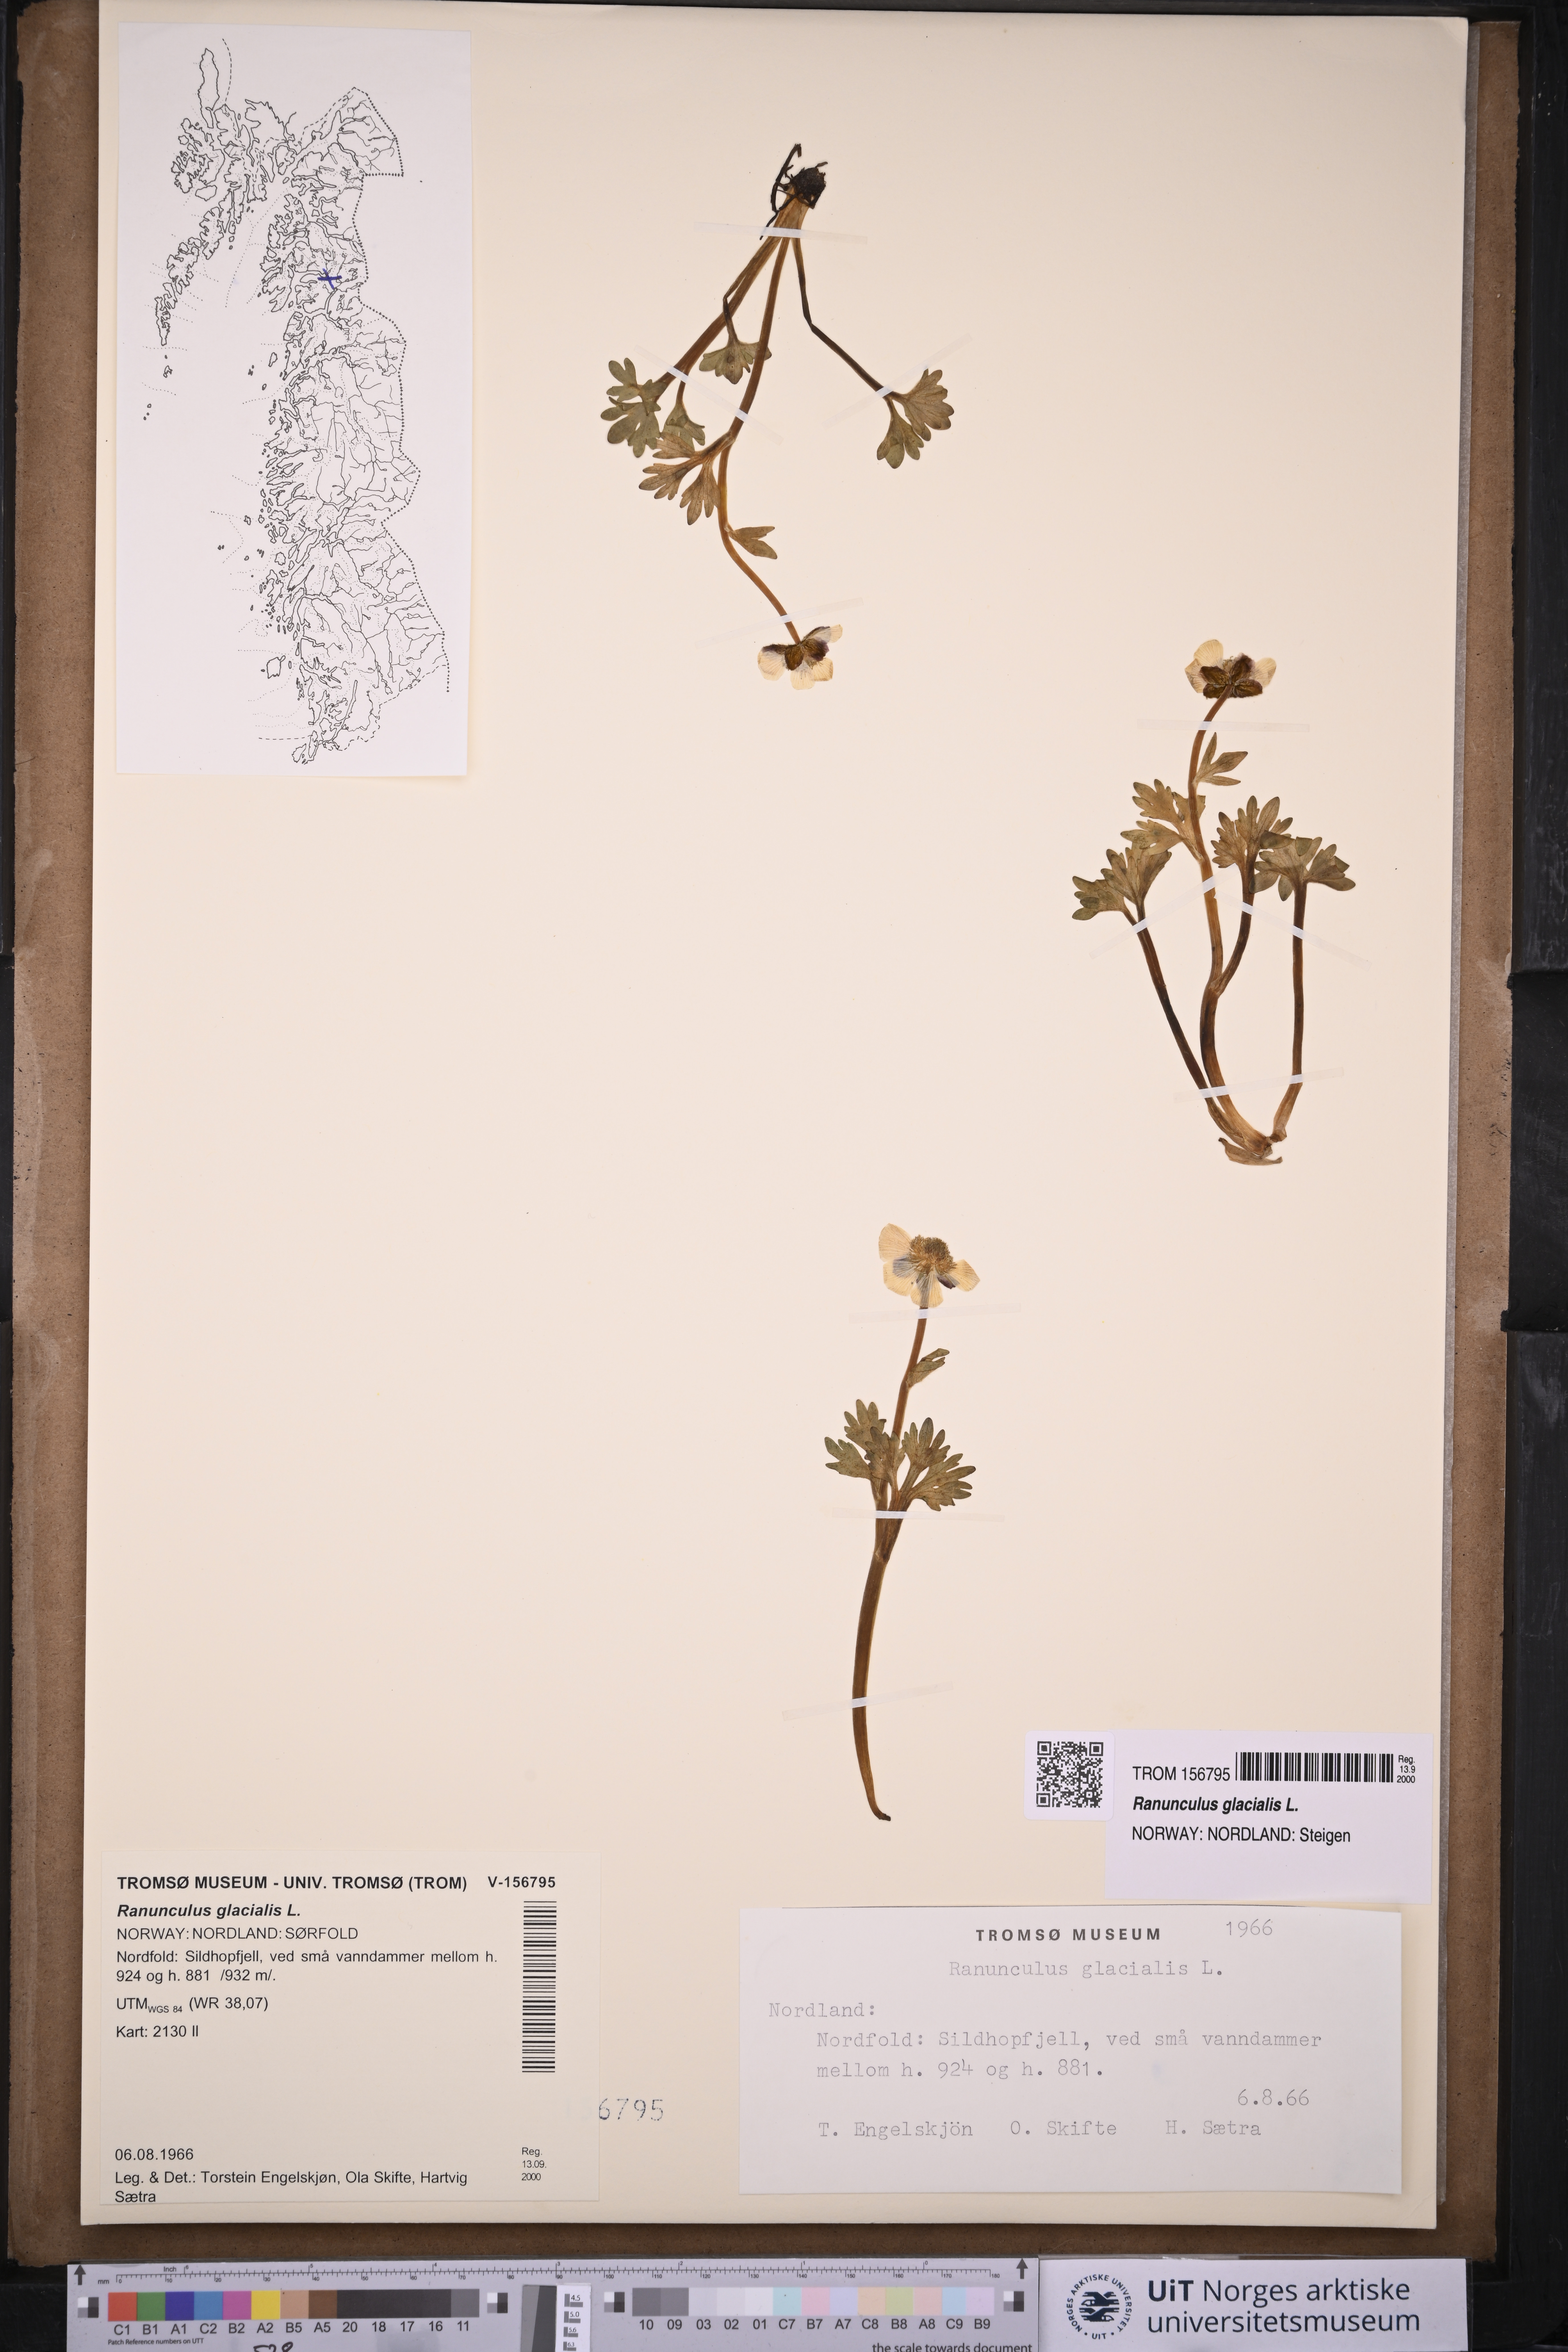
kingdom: Plantae
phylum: Tracheophyta
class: Magnoliopsida
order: Ranunculales
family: Ranunculaceae
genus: Ranunculus
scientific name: Ranunculus glacialis
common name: Glacier buttercup
